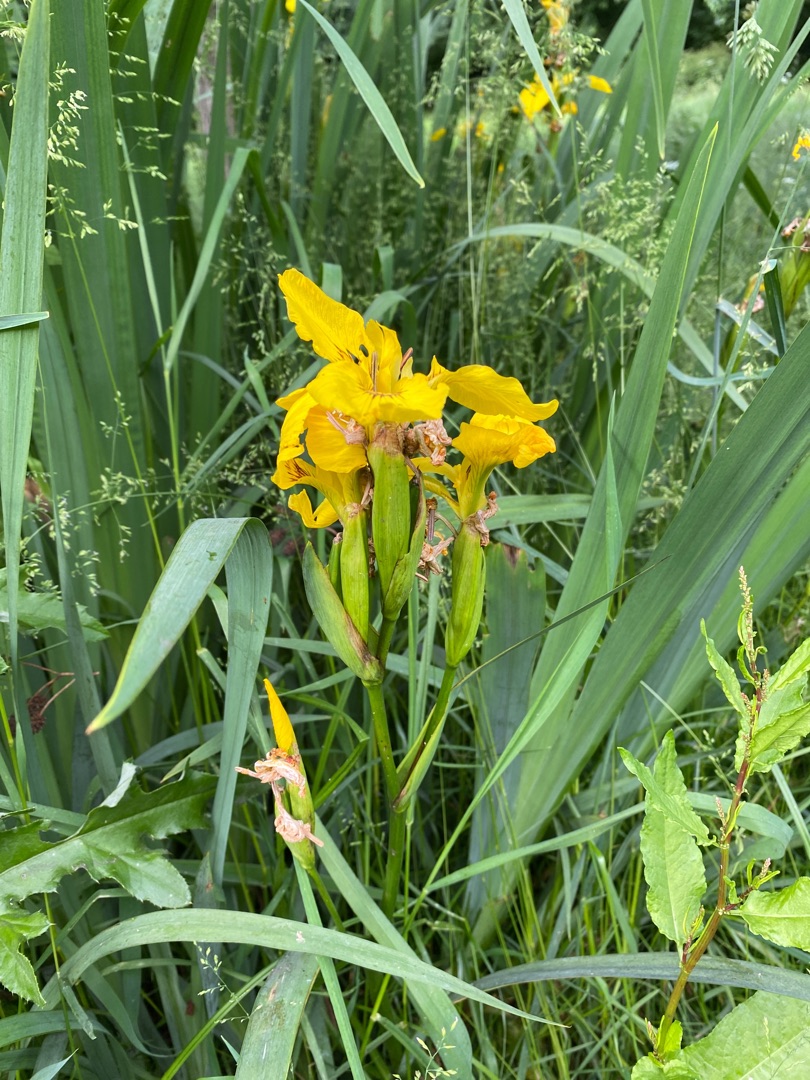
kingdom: Plantae
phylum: Tracheophyta
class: Liliopsida
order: Asparagales
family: Iridaceae
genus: Iris
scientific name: Iris pseudacorus
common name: Gul iris
